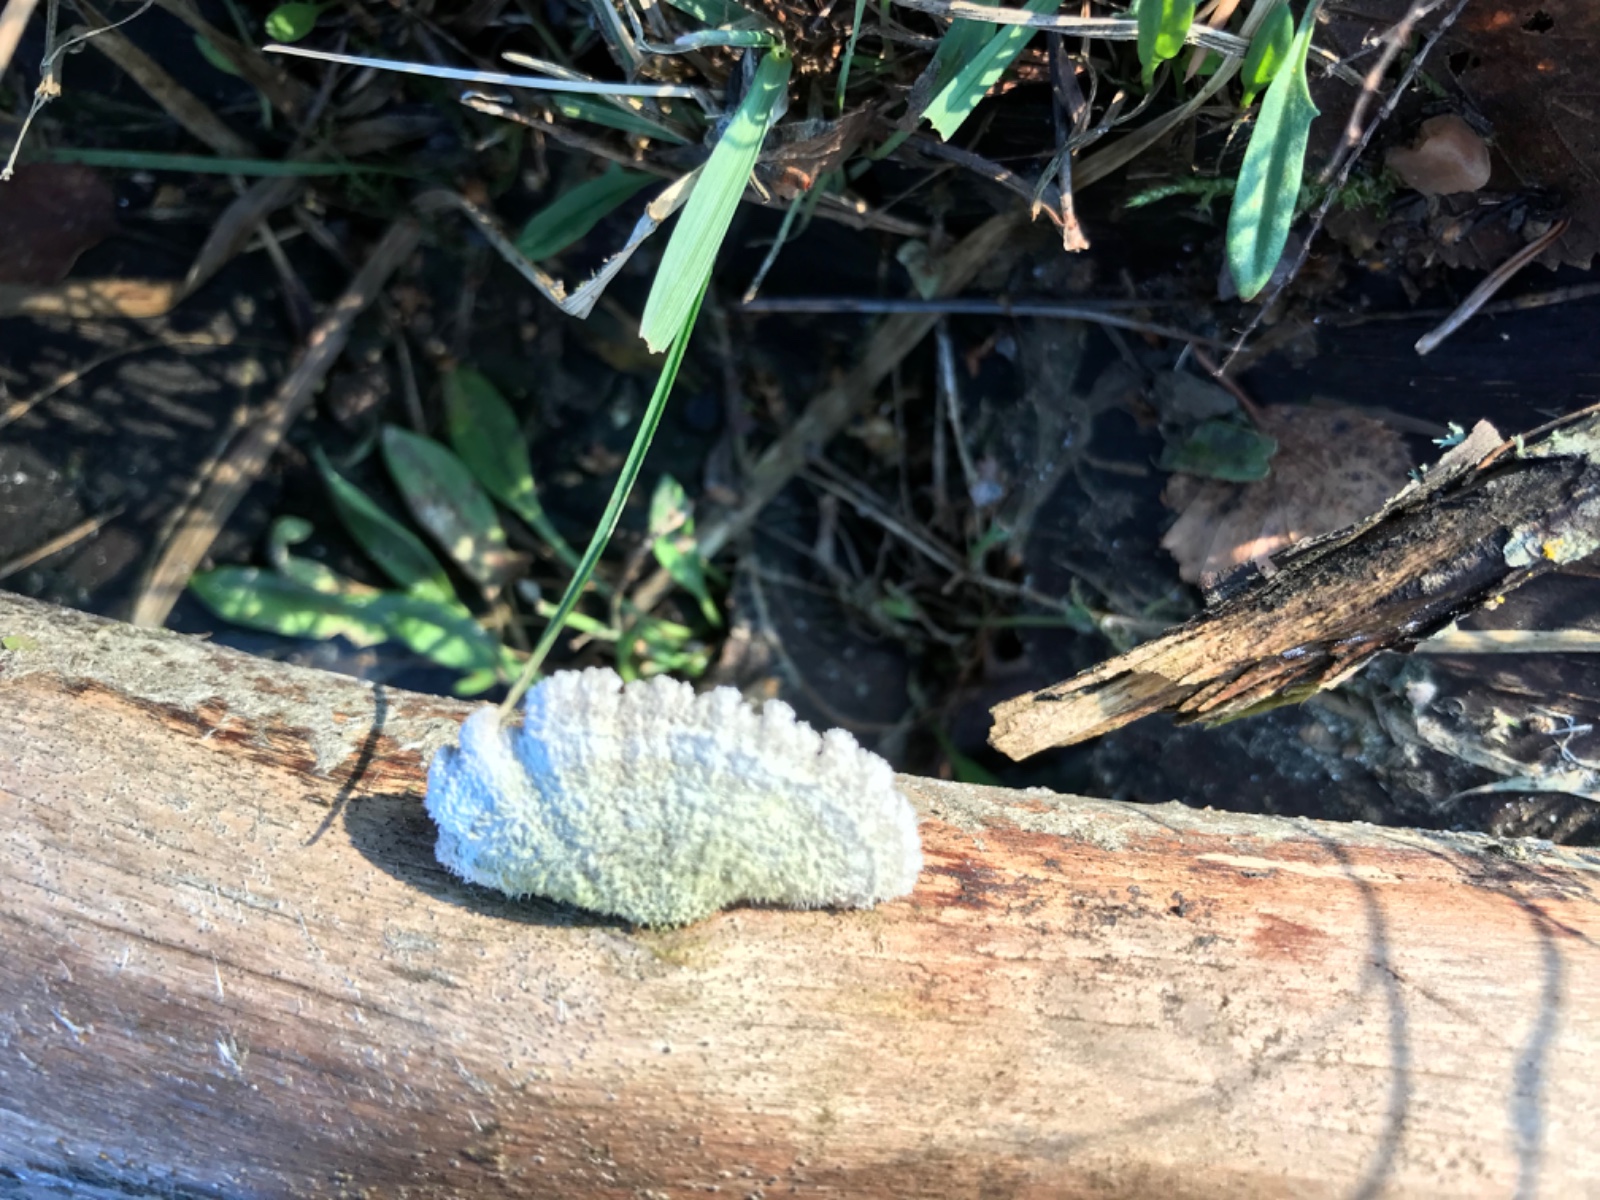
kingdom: Fungi
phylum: Basidiomycota
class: Agaricomycetes
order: Agaricales
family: Schizophyllaceae
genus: Schizophyllum
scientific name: Schizophyllum commune
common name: kløvblad
